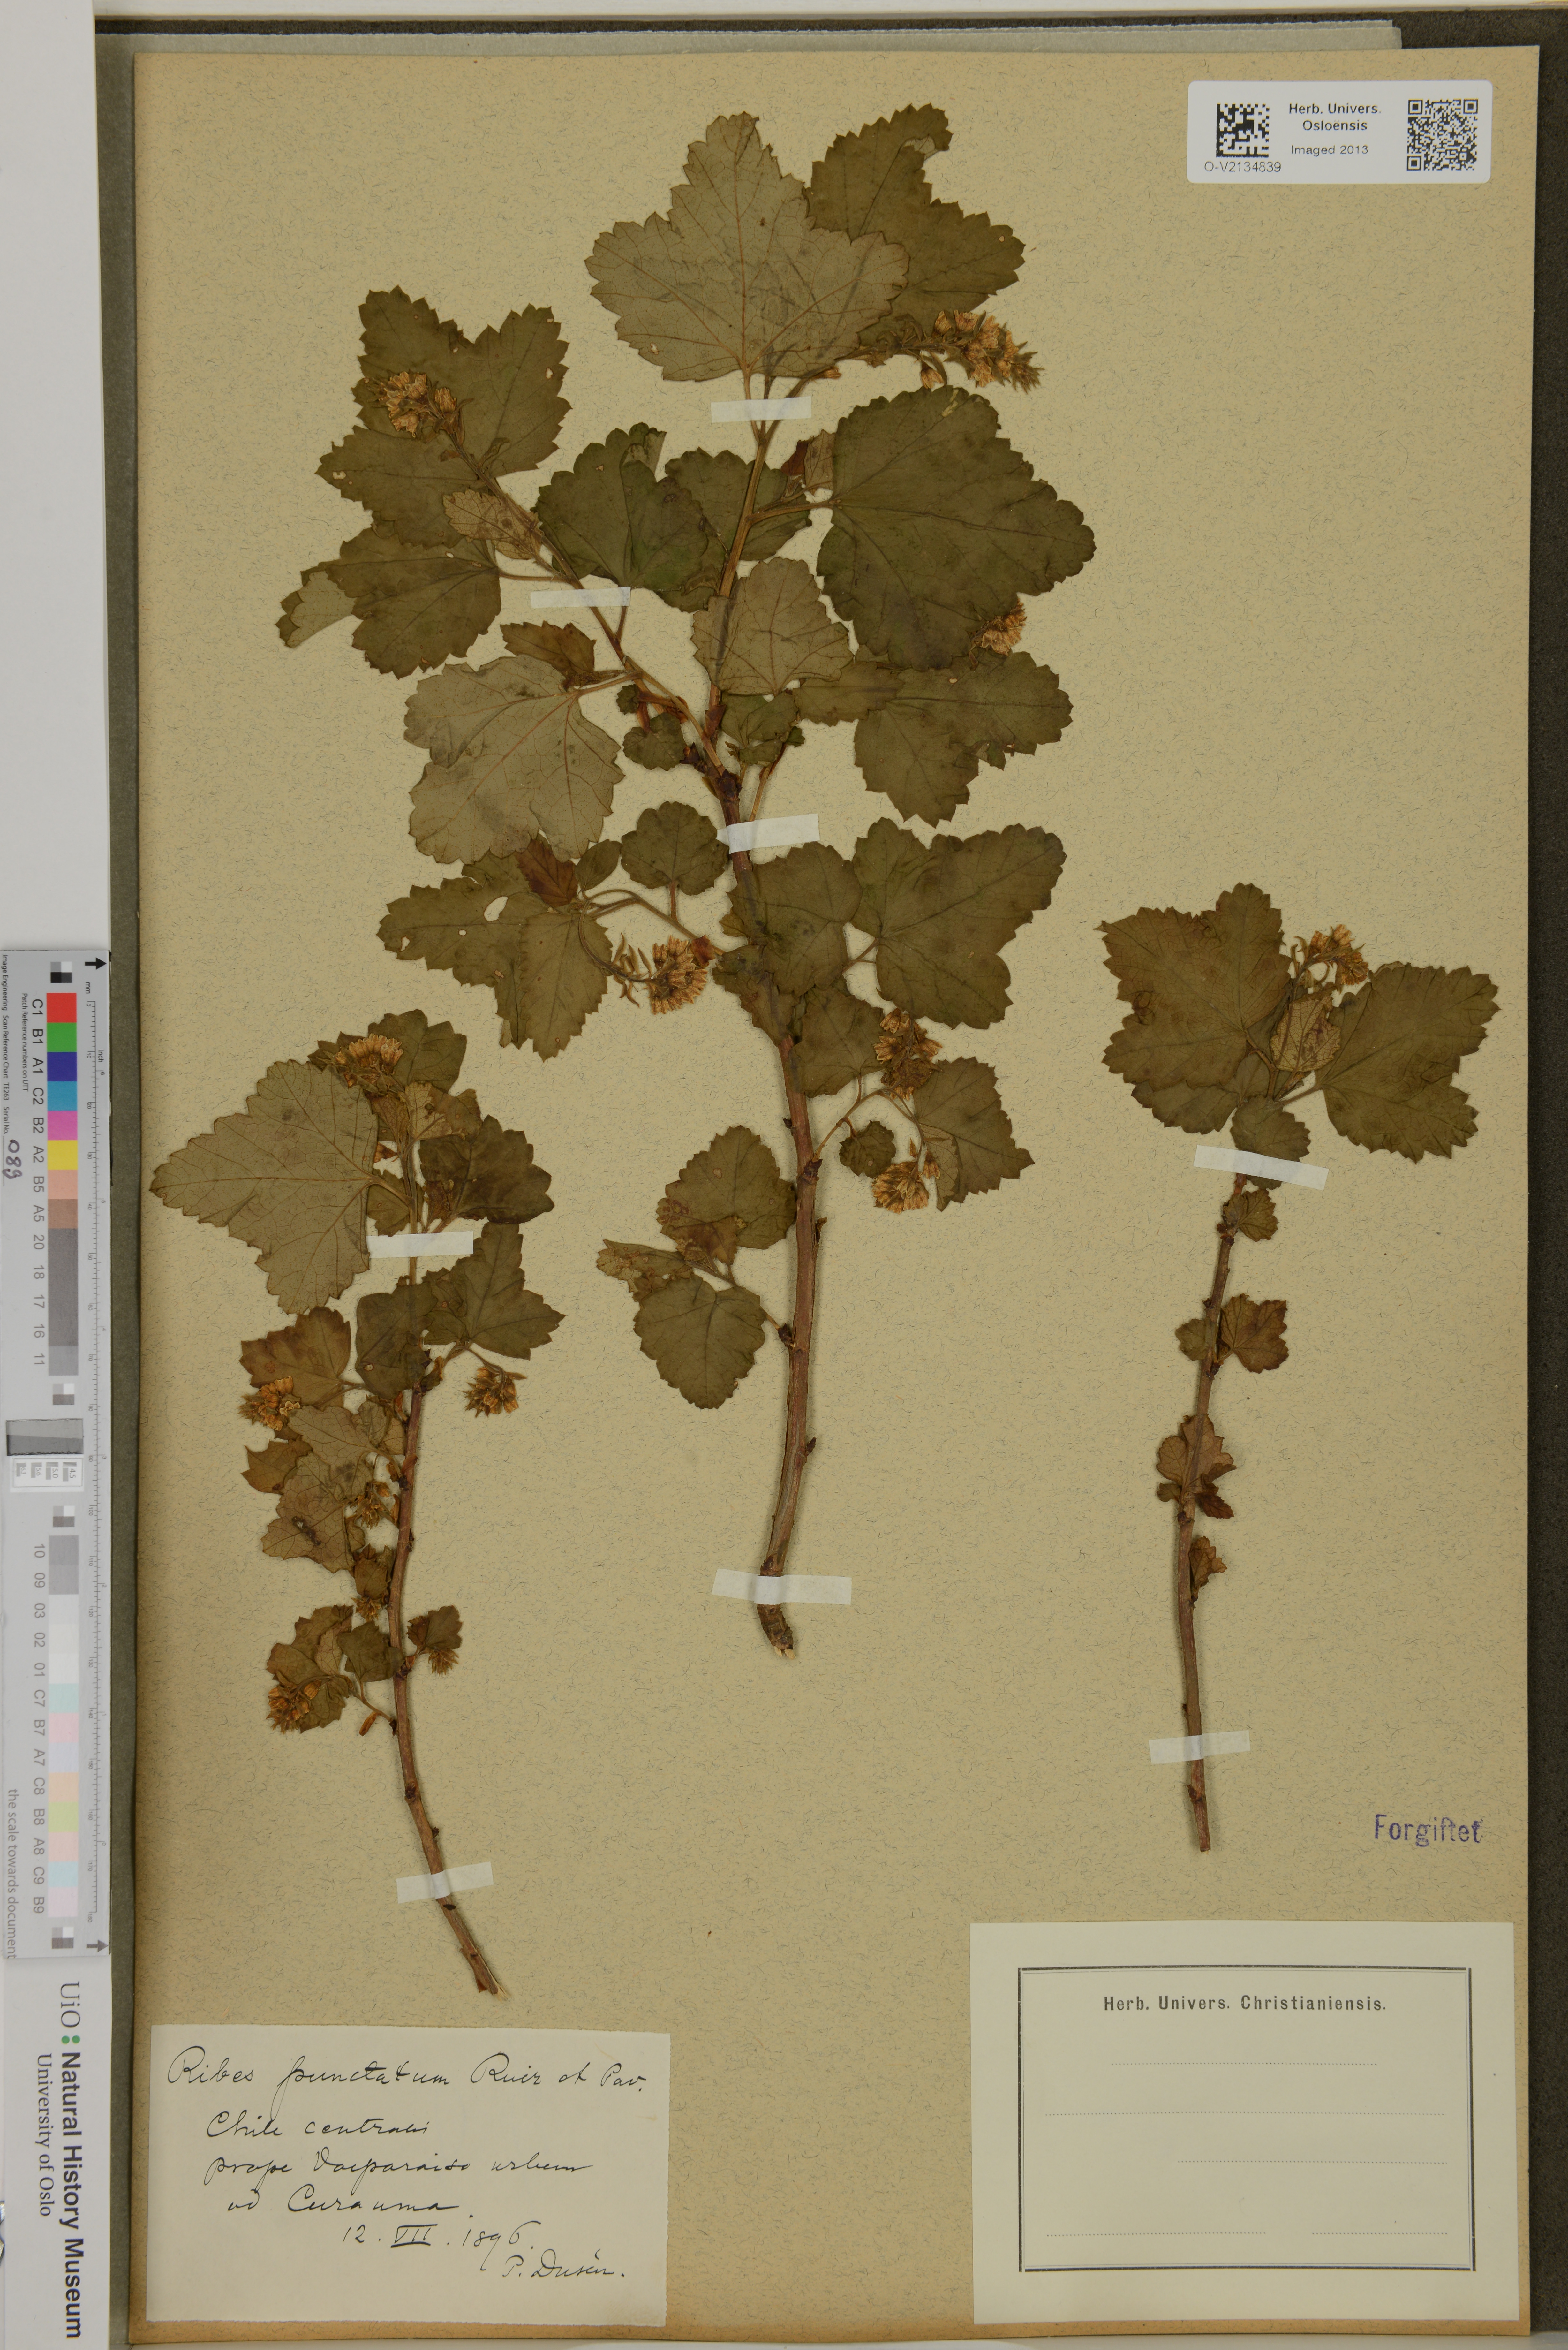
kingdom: Plantae
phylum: Tracheophyta
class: Magnoliopsida
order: Saxifragales
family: Grossulariaceae
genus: Ribes
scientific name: Ribes punctatum
